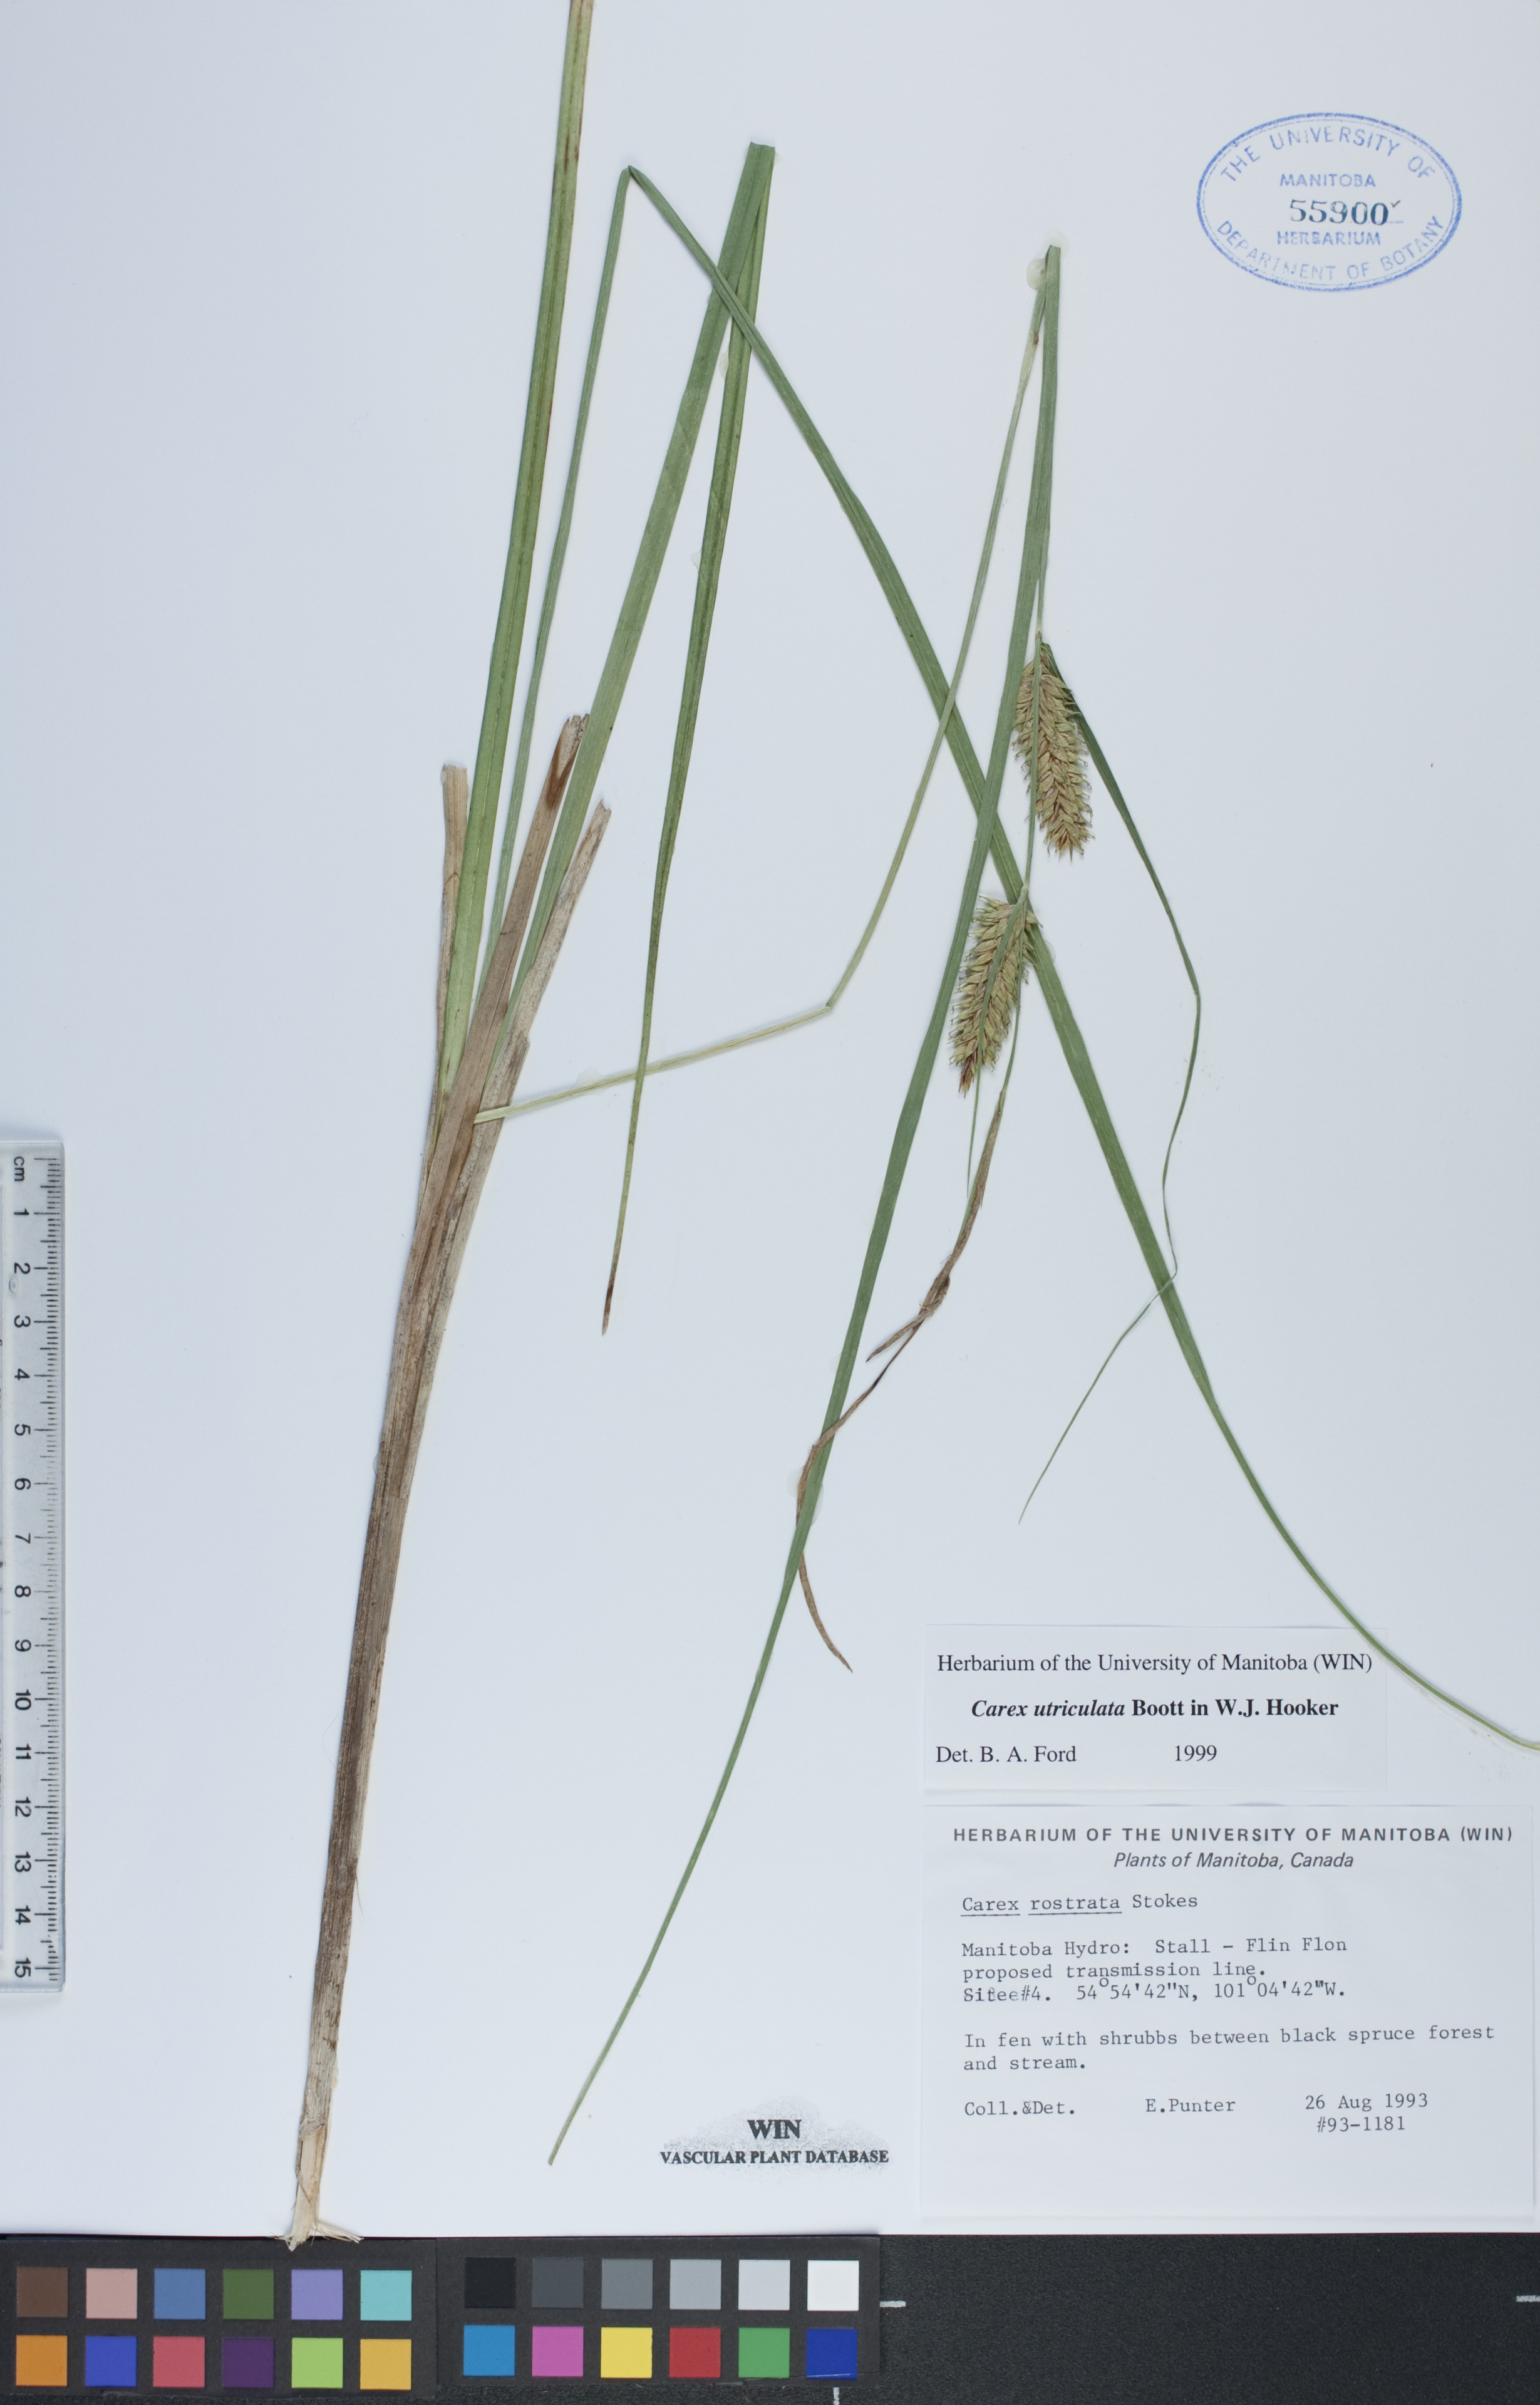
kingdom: Plantae
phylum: Tracheophyta
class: Liliopsida
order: Poales
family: Cyperaceae
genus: Carex
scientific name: Carex utriculata
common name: Beaked sedge
